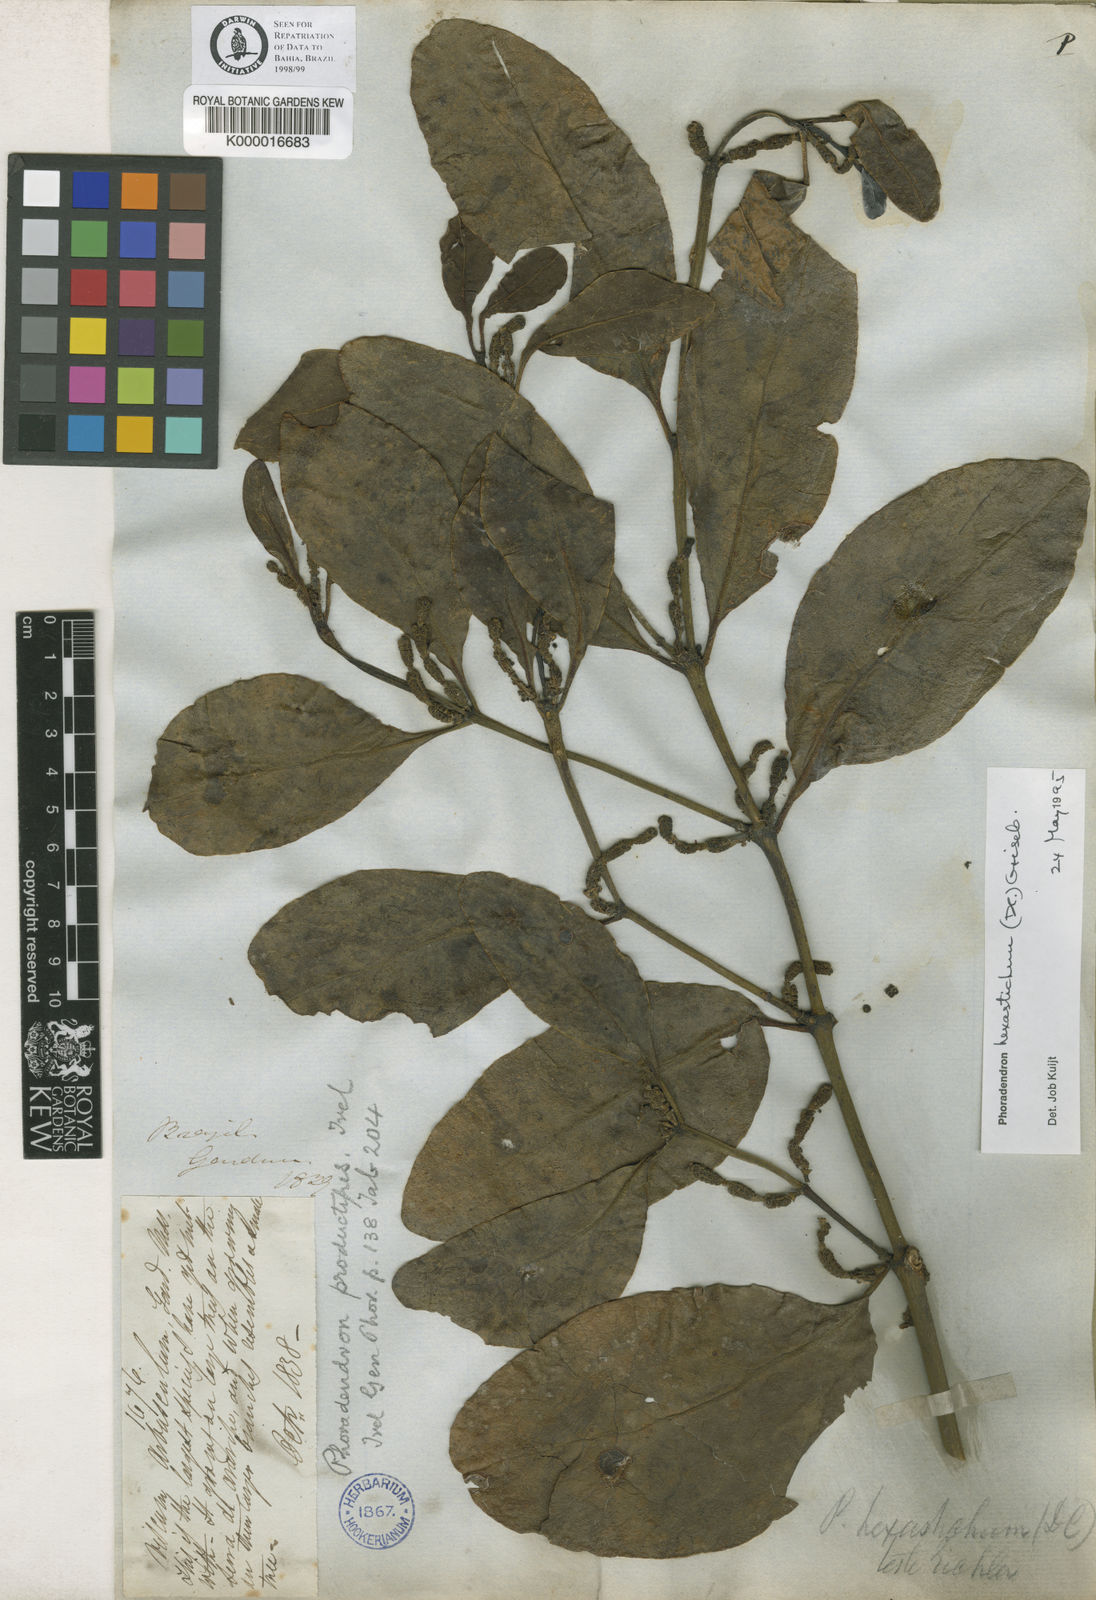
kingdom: Plantae
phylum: Tracheophyta
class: Magnoliopsida
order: Santalales
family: Viscaceae
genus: Phoradendron
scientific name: Phoradendron hexastichum
